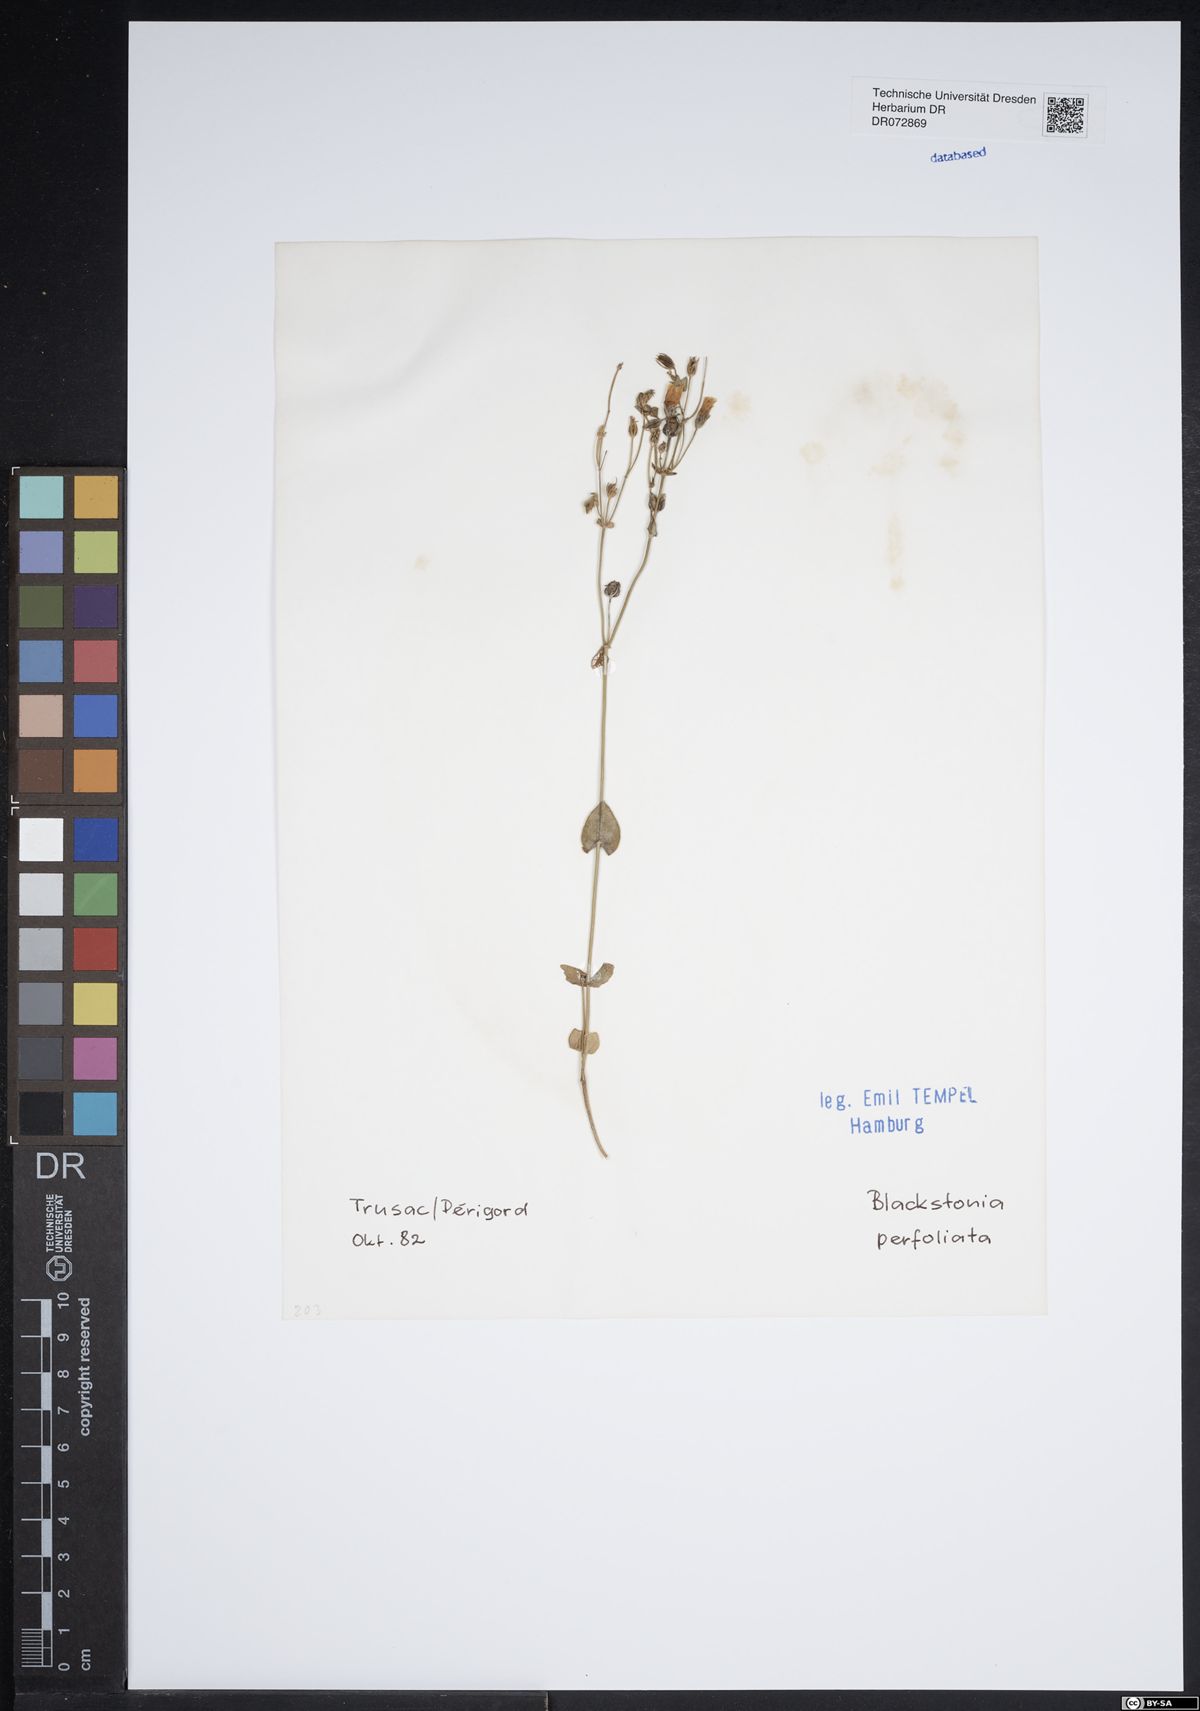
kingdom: Plantae
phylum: Tracheophyta
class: Magnoliopsida
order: Gentianales
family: Gentianaceae
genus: Blackstonia
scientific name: Blackstonia perfoliata
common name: Yellow-wort
